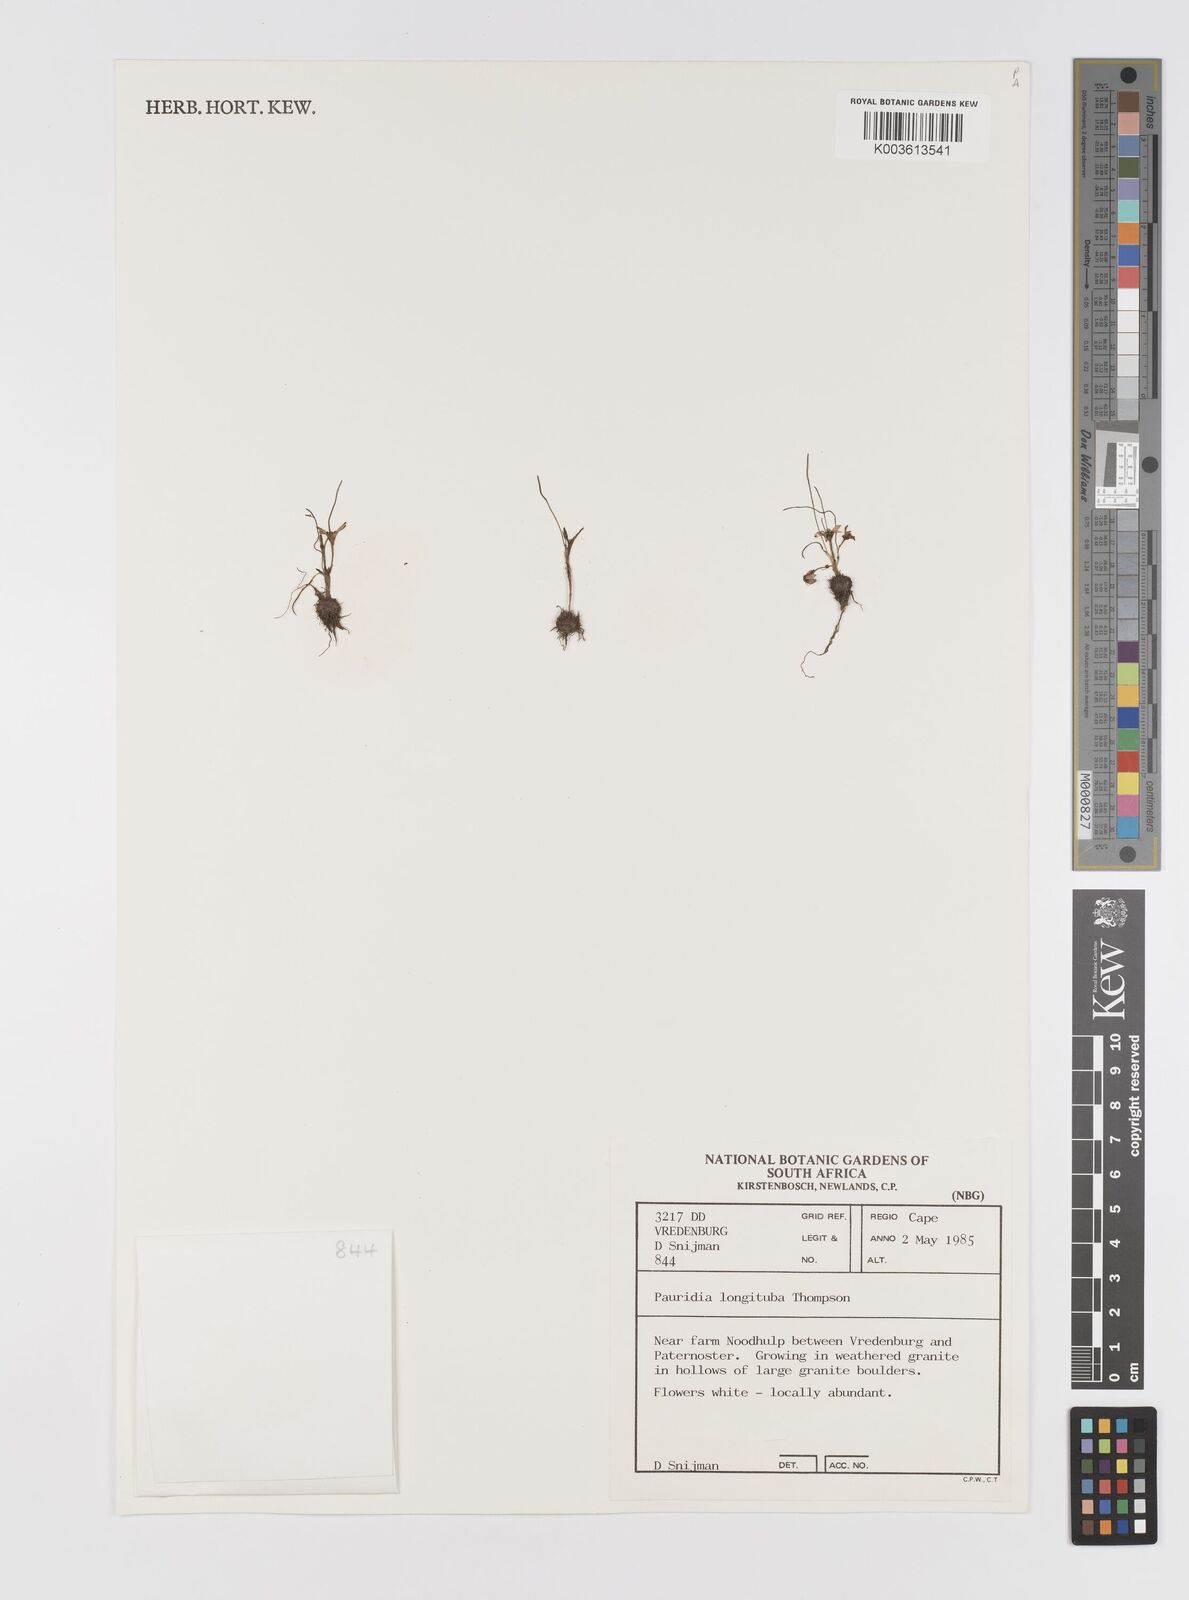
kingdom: Plantae
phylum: Tracheophyta
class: Liliopsida
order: Asparagales
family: Hypoxidaceae
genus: Pauridia
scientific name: Pauridia longituba
